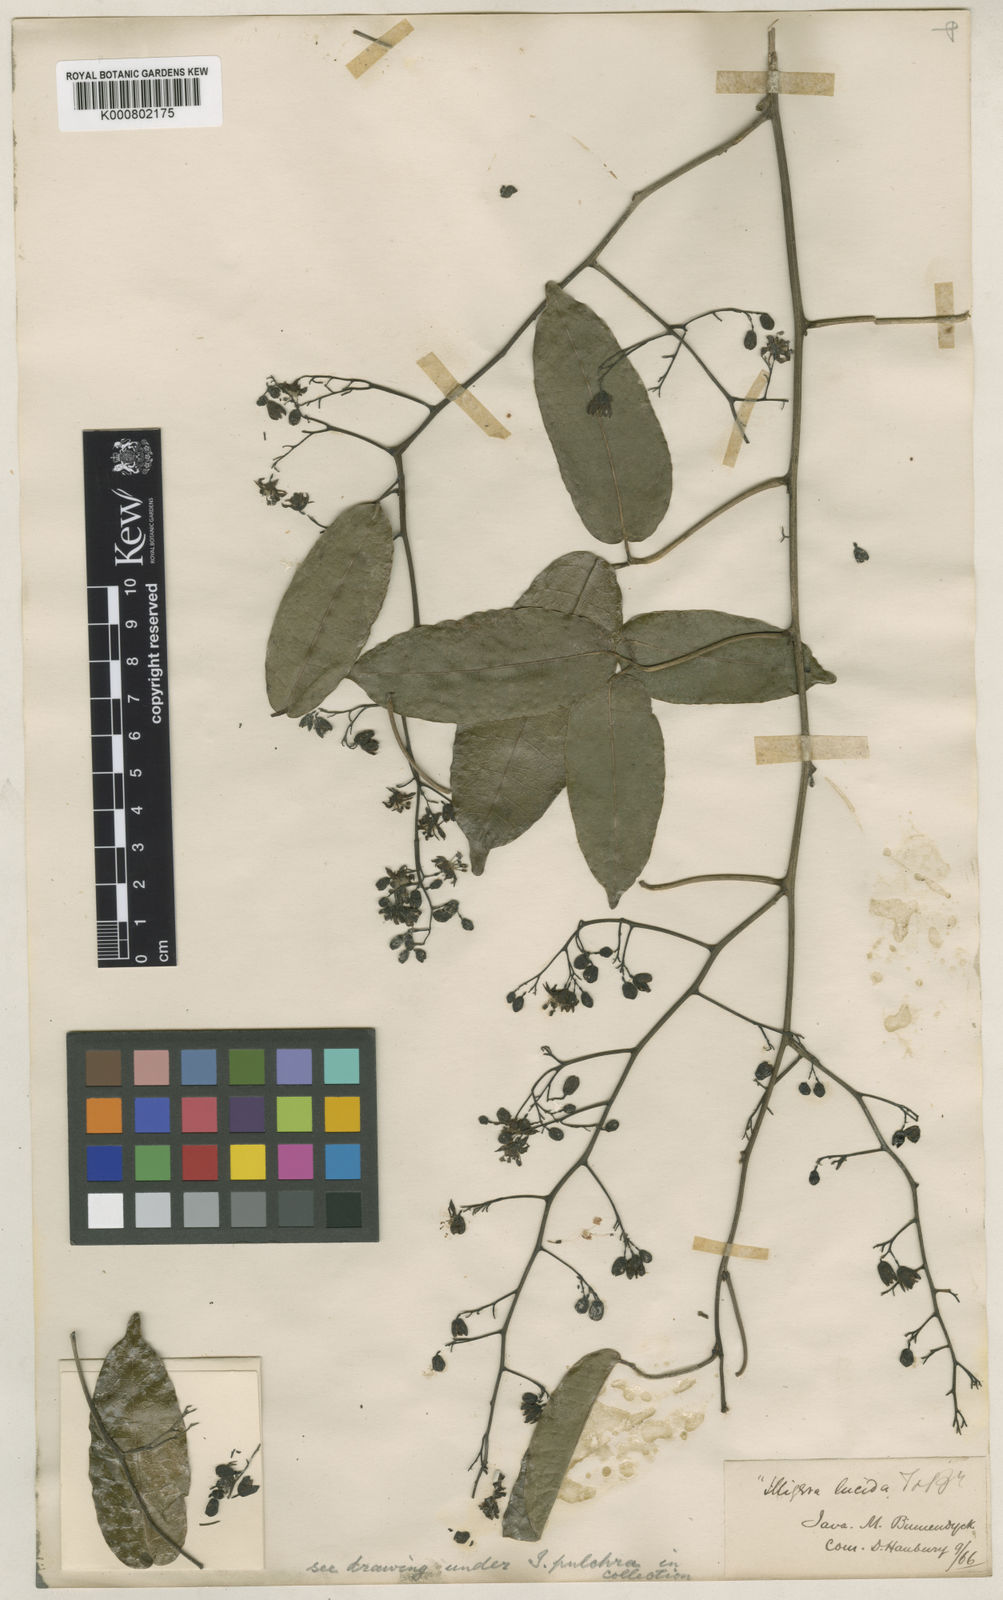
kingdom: Plantae
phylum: Tracheophyta
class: Magnoliopsida
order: Laurales
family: Hernandiaceae
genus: Illigera
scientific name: Illigera pulchra
